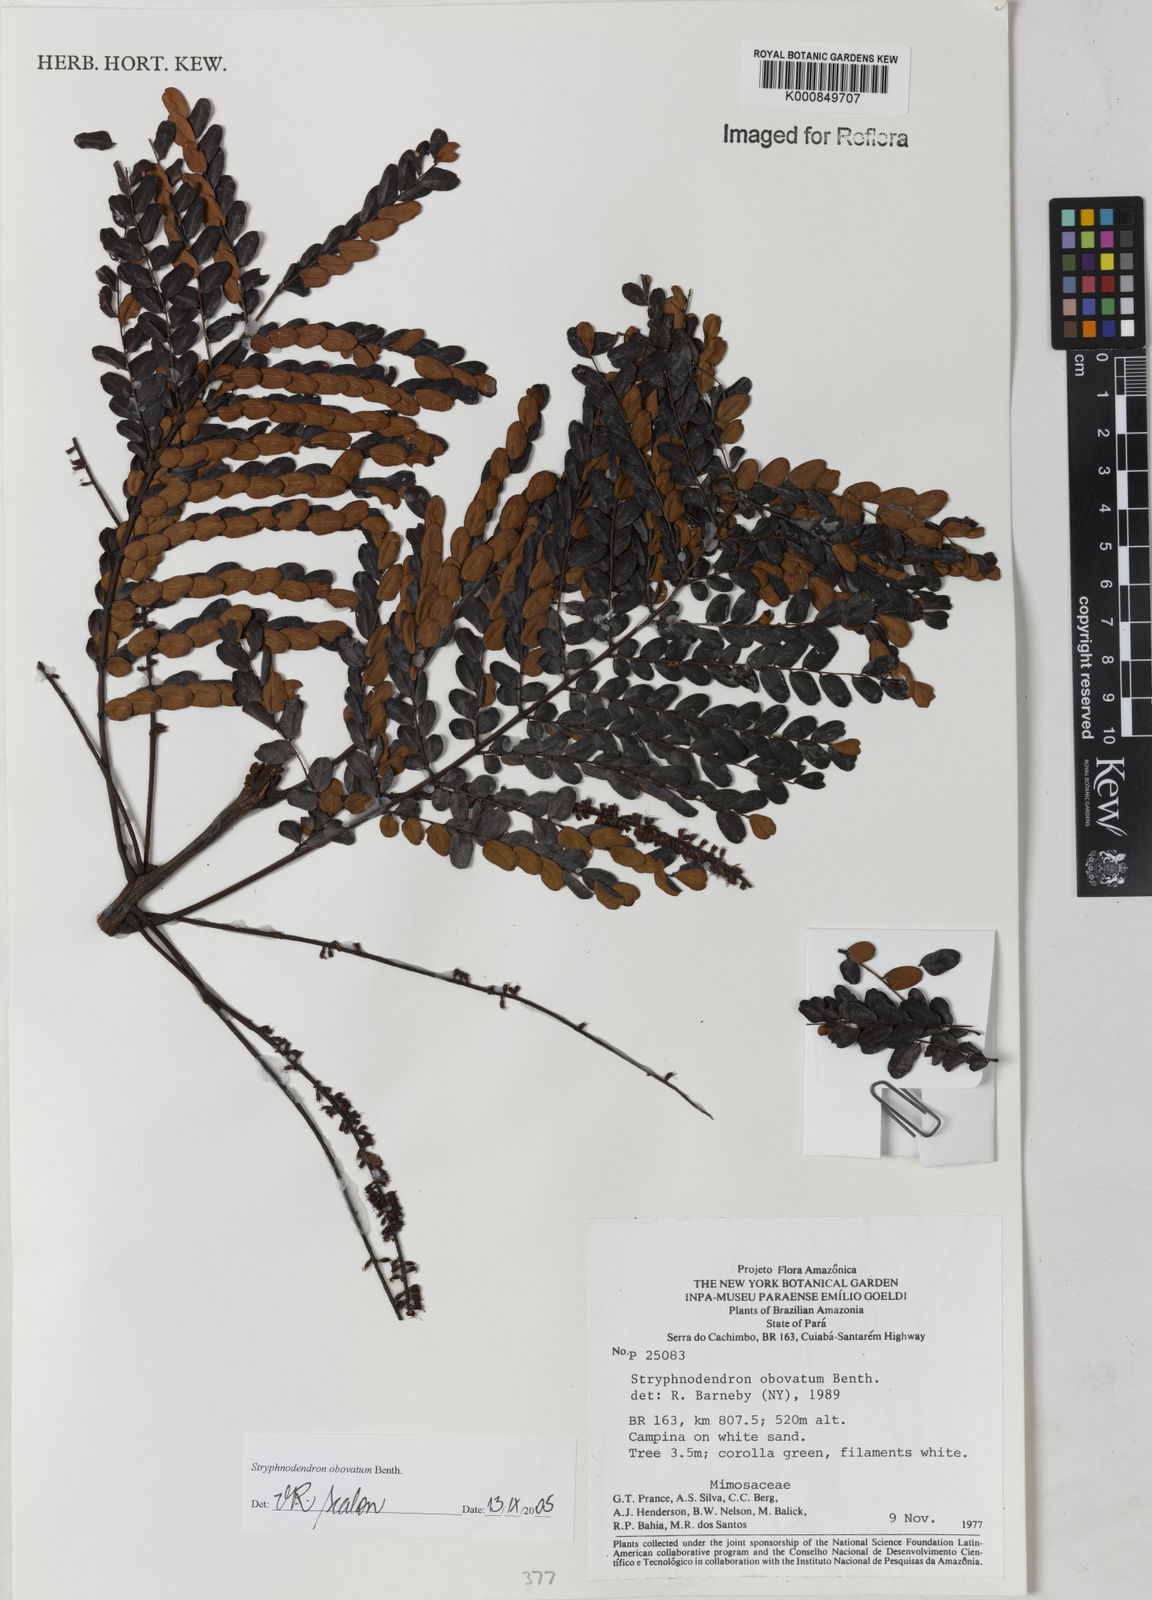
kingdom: Plantae
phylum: Tracheophyta
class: Magnoliopsida
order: Fabales
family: Fabaceae
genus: Stryphnodendron
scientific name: Stryphnodendron rotundifolium
